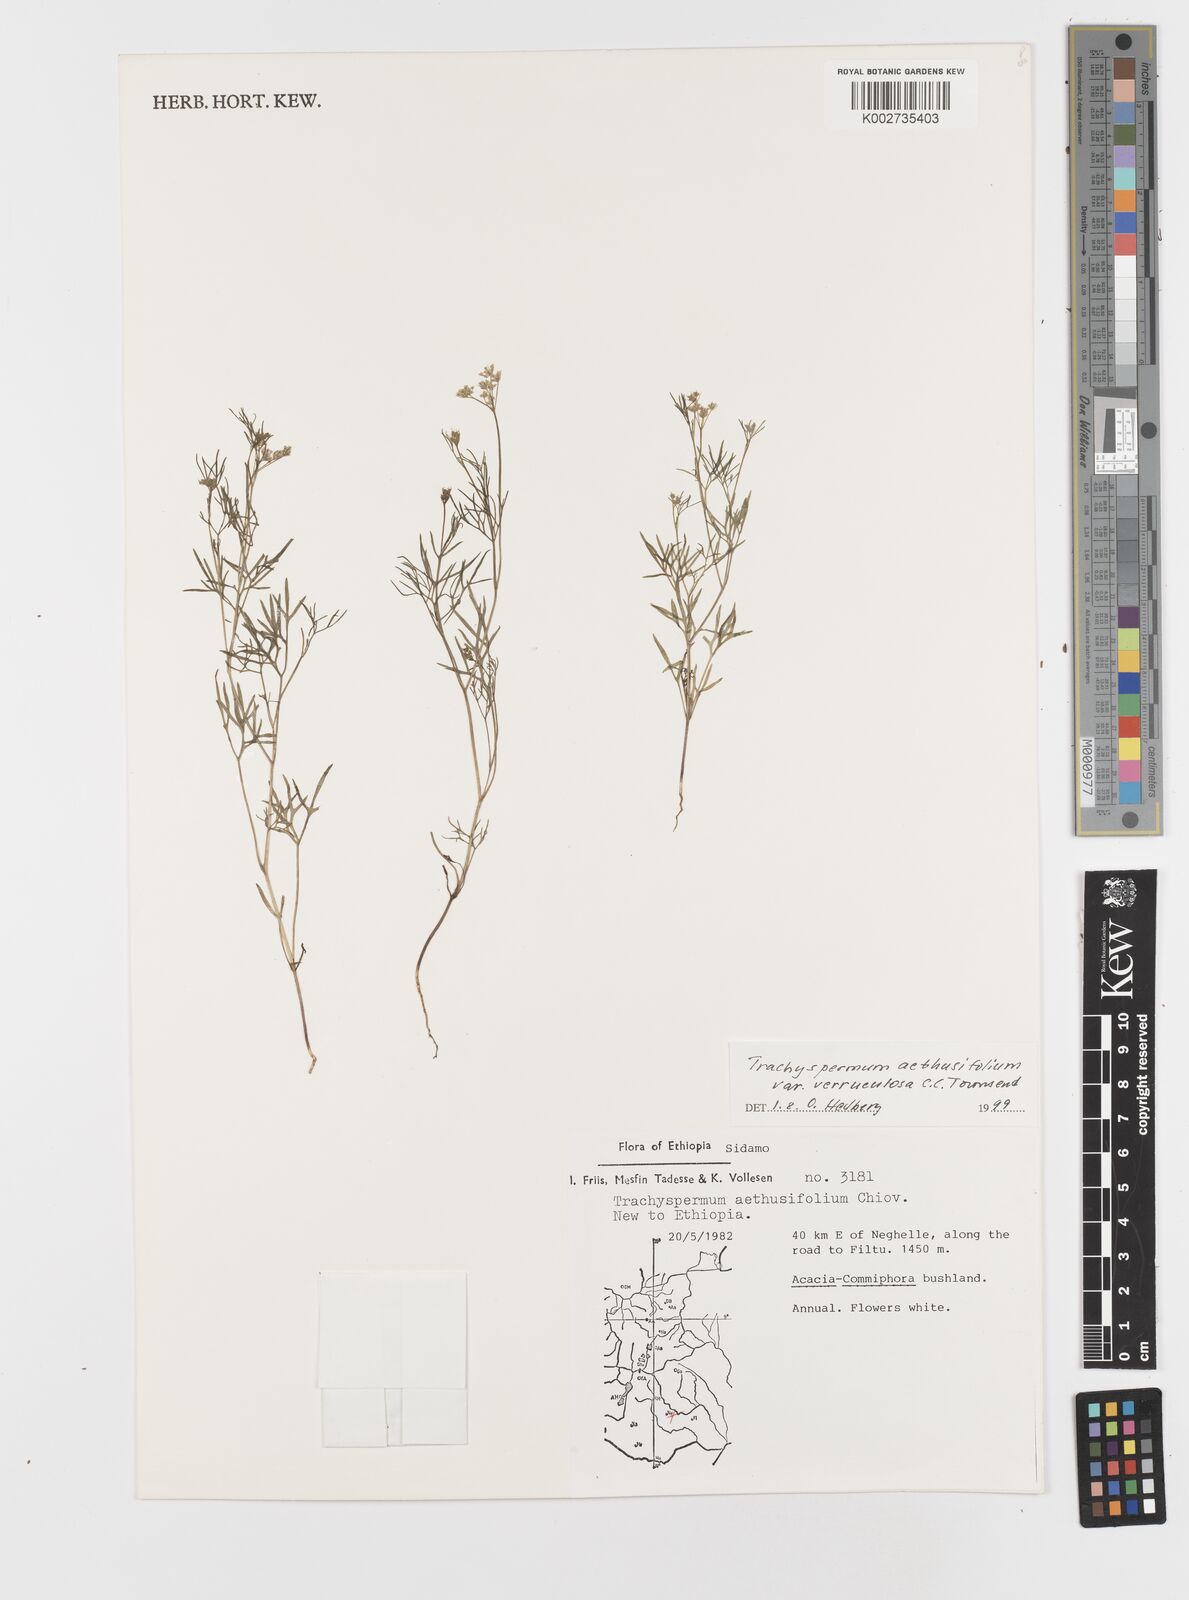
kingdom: Plantae
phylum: Tracheophyta
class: Magnoliopsida
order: Apiales
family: Apiaceae
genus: Trachyspermum
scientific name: Trachyspermum pimpinelloides
